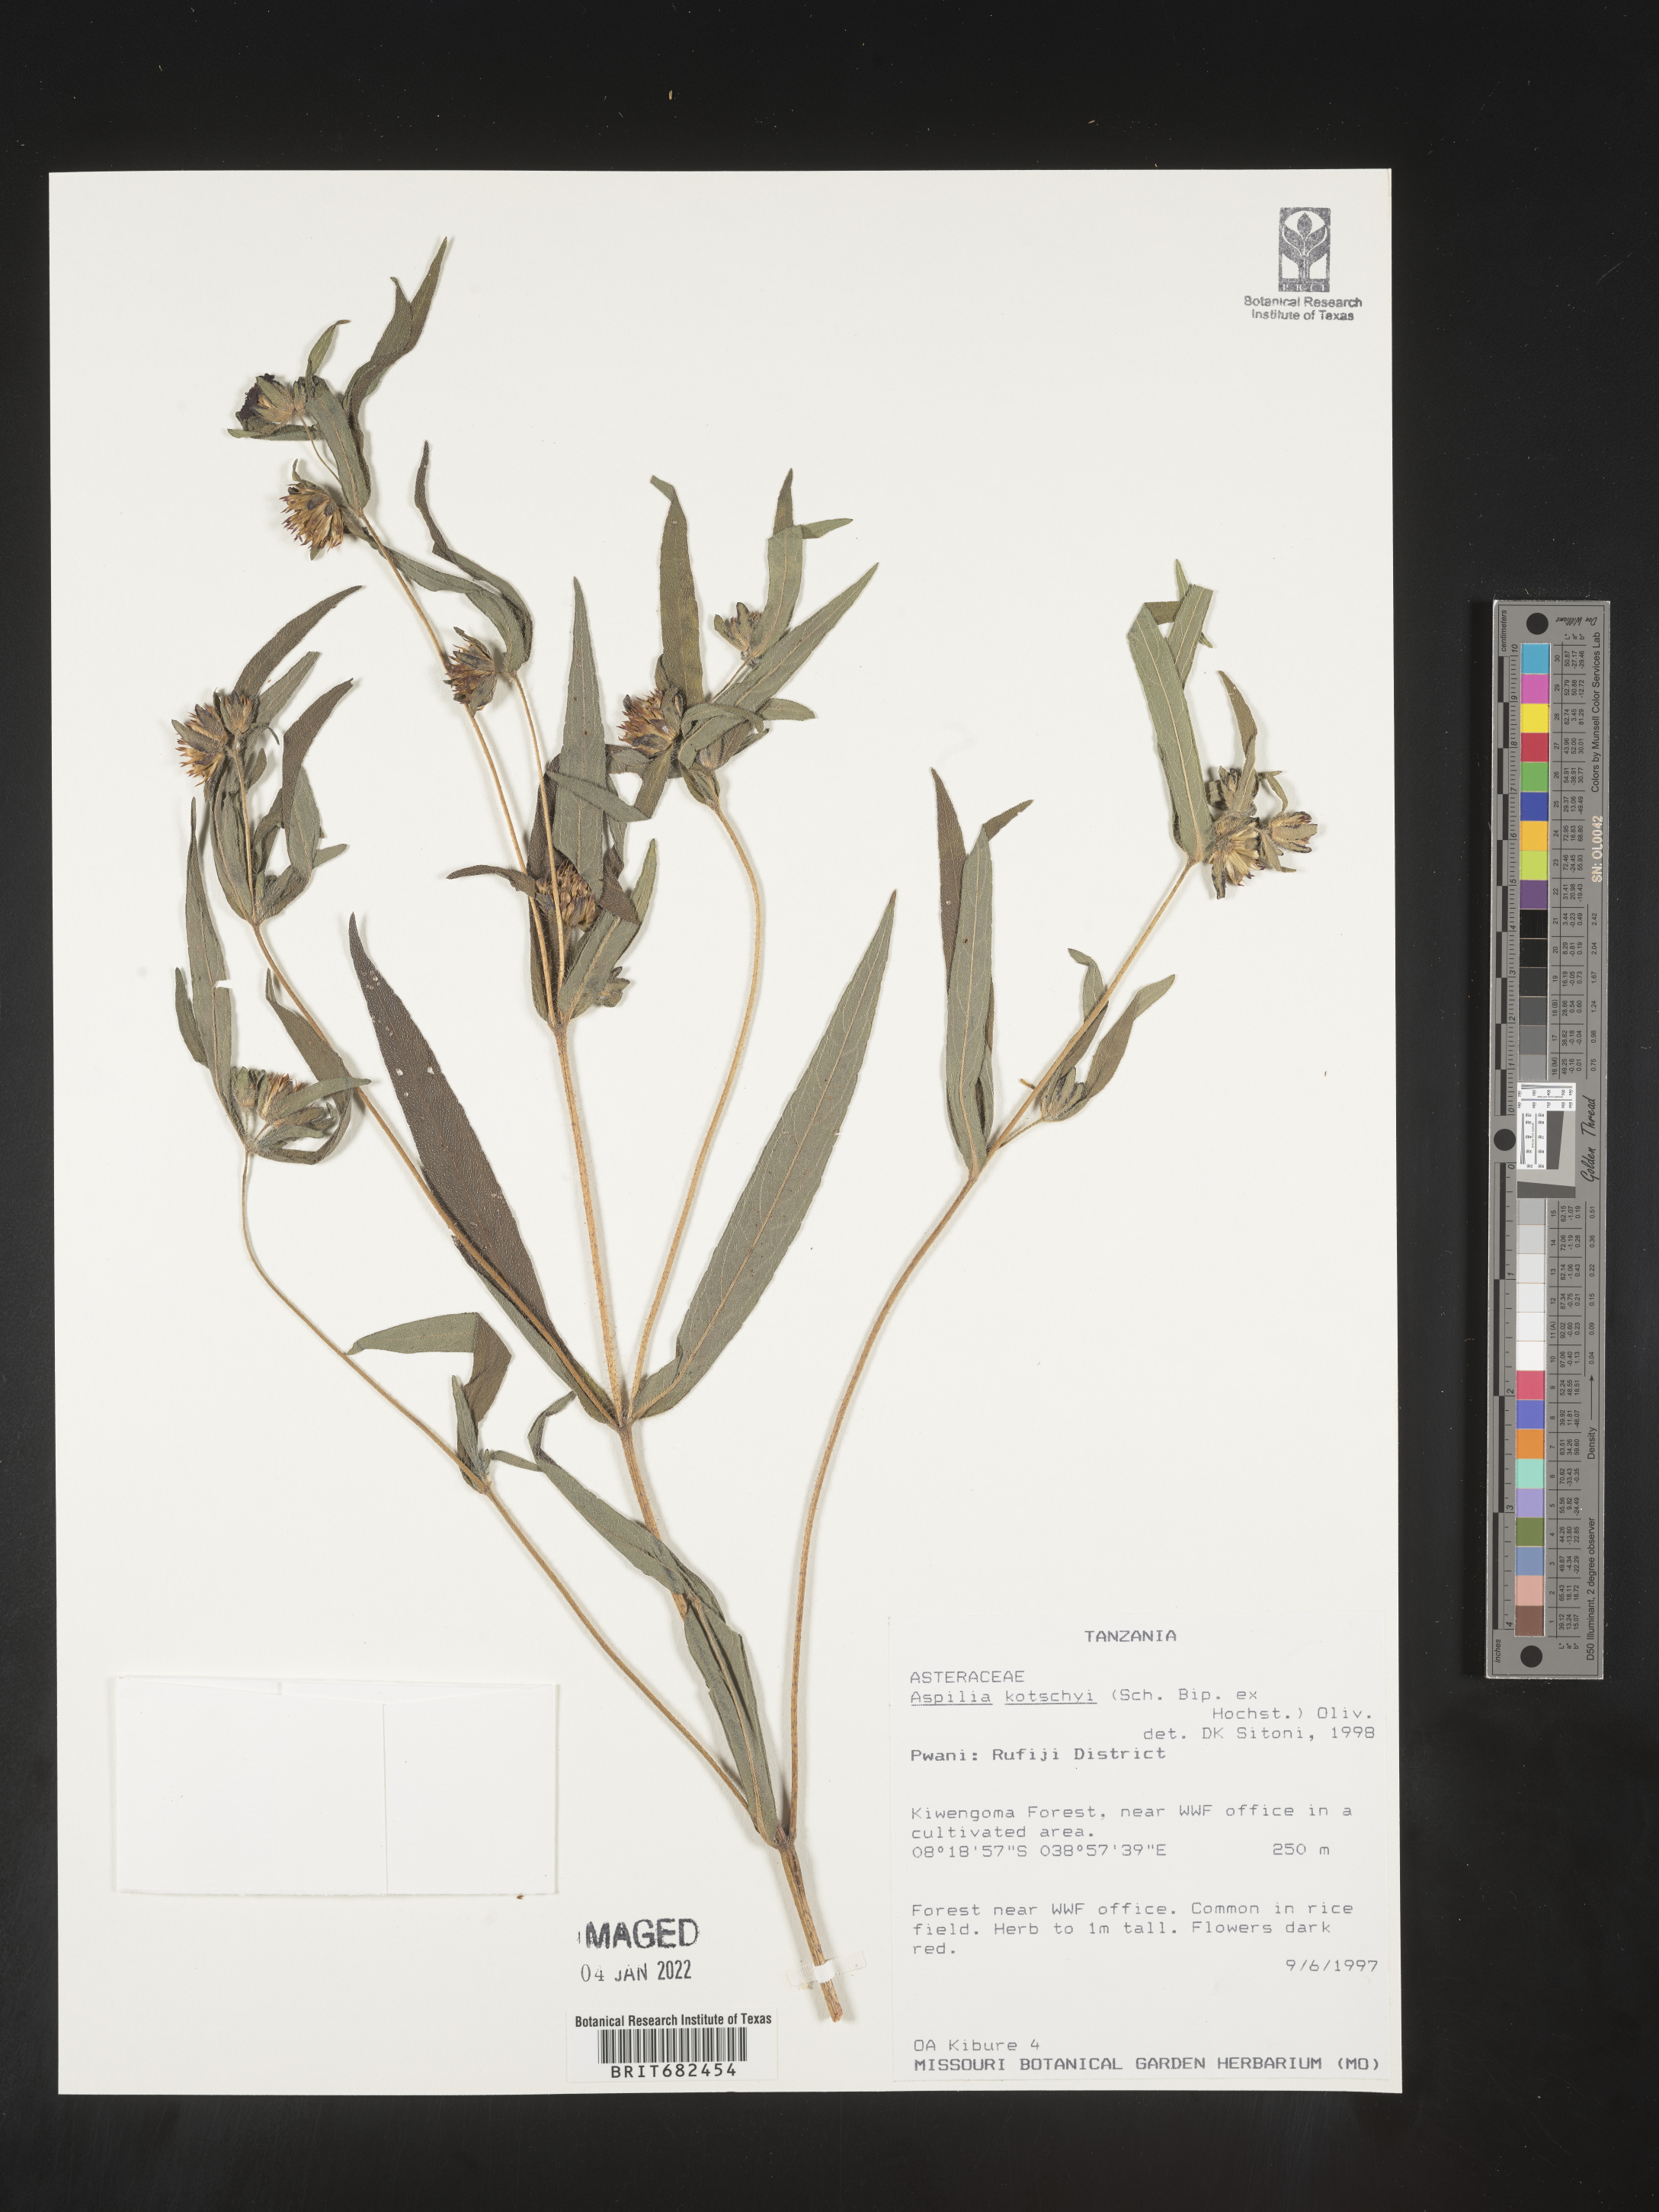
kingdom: Plantae
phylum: Tracheophyta
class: Magnoliopsida
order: Asterales
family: Asteraceae
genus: Aspilia
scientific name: Aspilia
